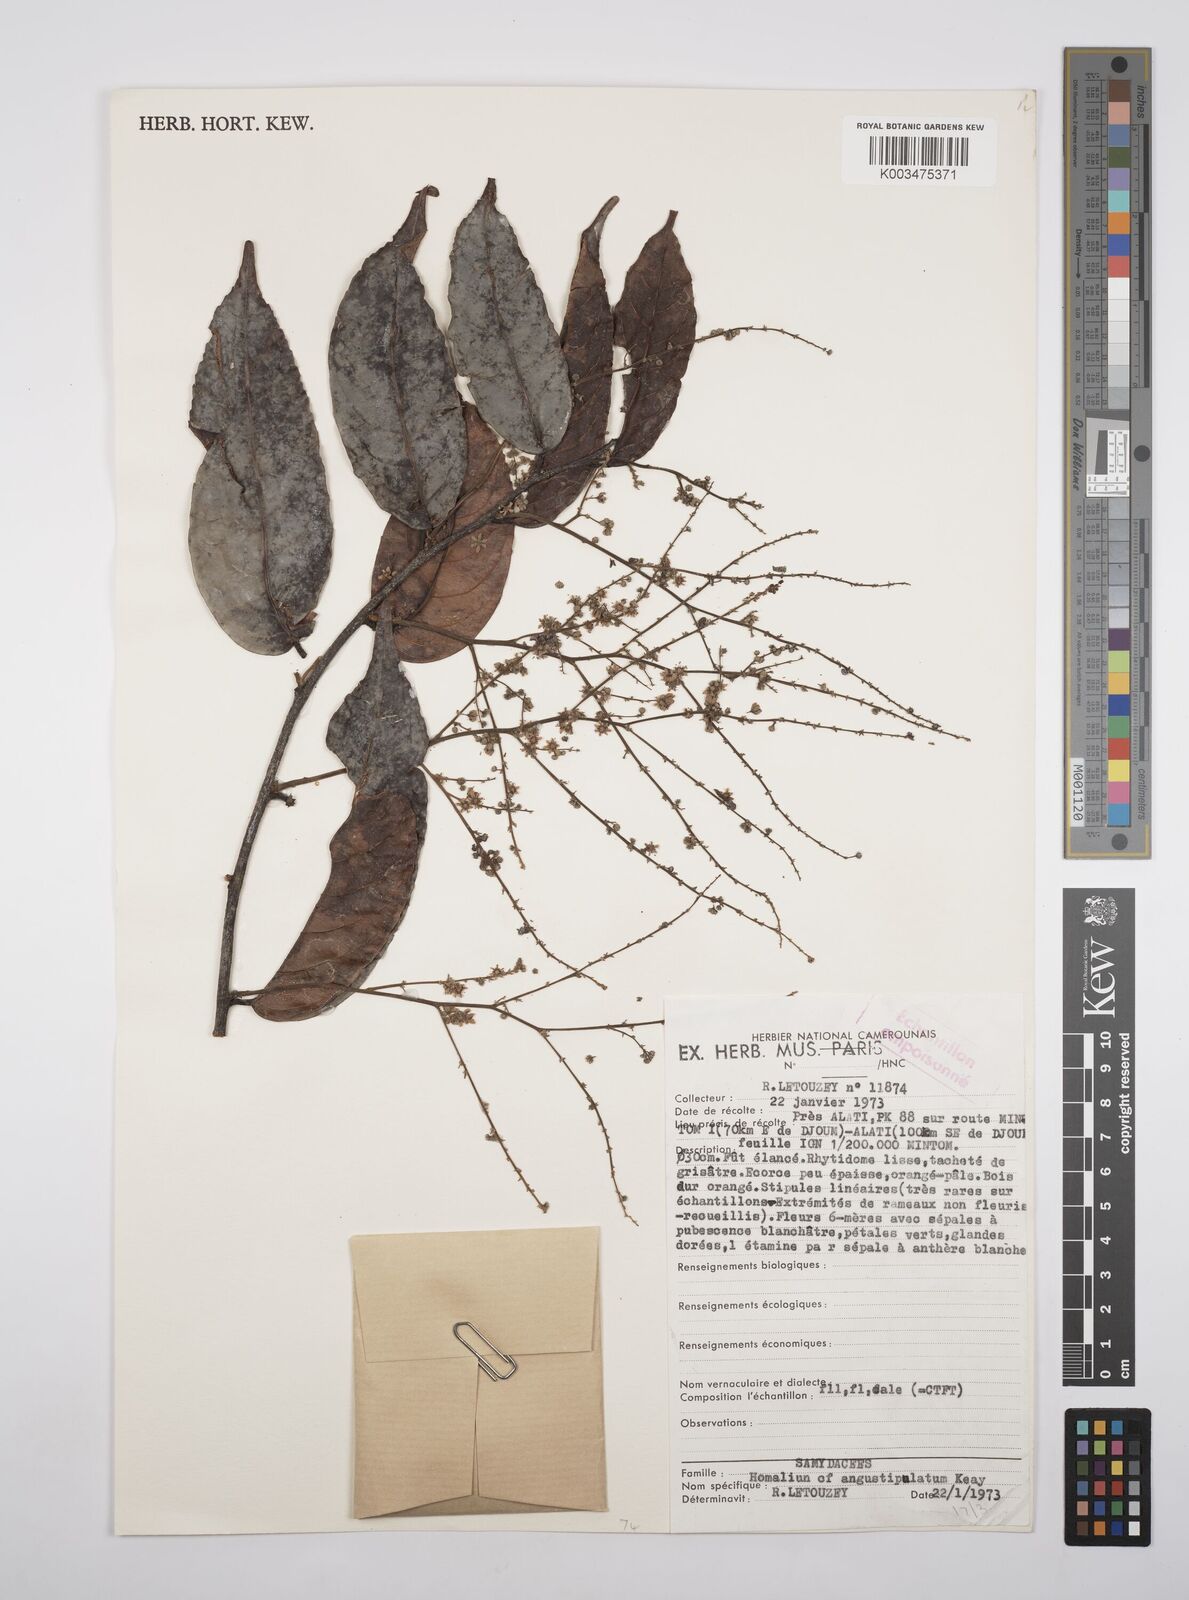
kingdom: Plantae
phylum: Tracheophyta
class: Magnoliopsida
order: Malpighiales
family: Salicaceae
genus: Homalium
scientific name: Homalium dewevrei
